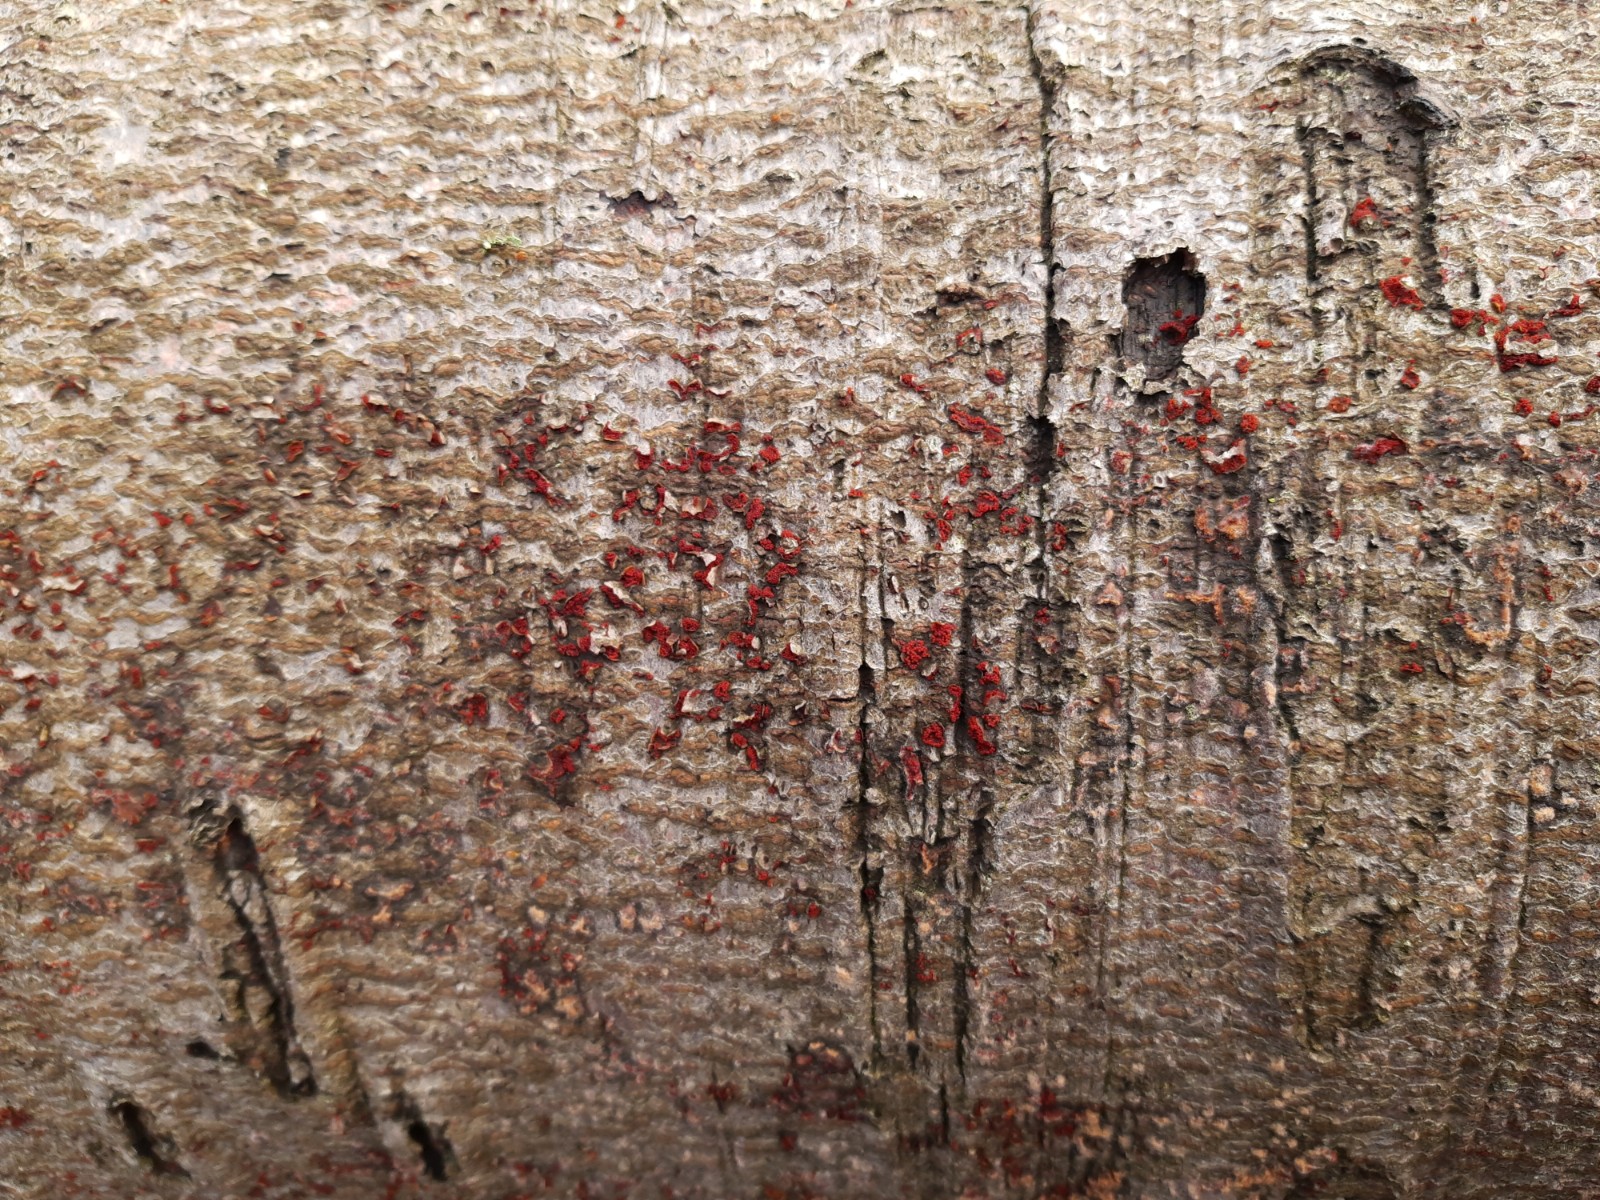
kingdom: Fungi
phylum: Ascomycota
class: Sordariomycetes
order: Hypocreales
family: Nectriaceae
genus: Neonectria
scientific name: Neonectria coccinea
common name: bøgebark-cinnobersvamp
